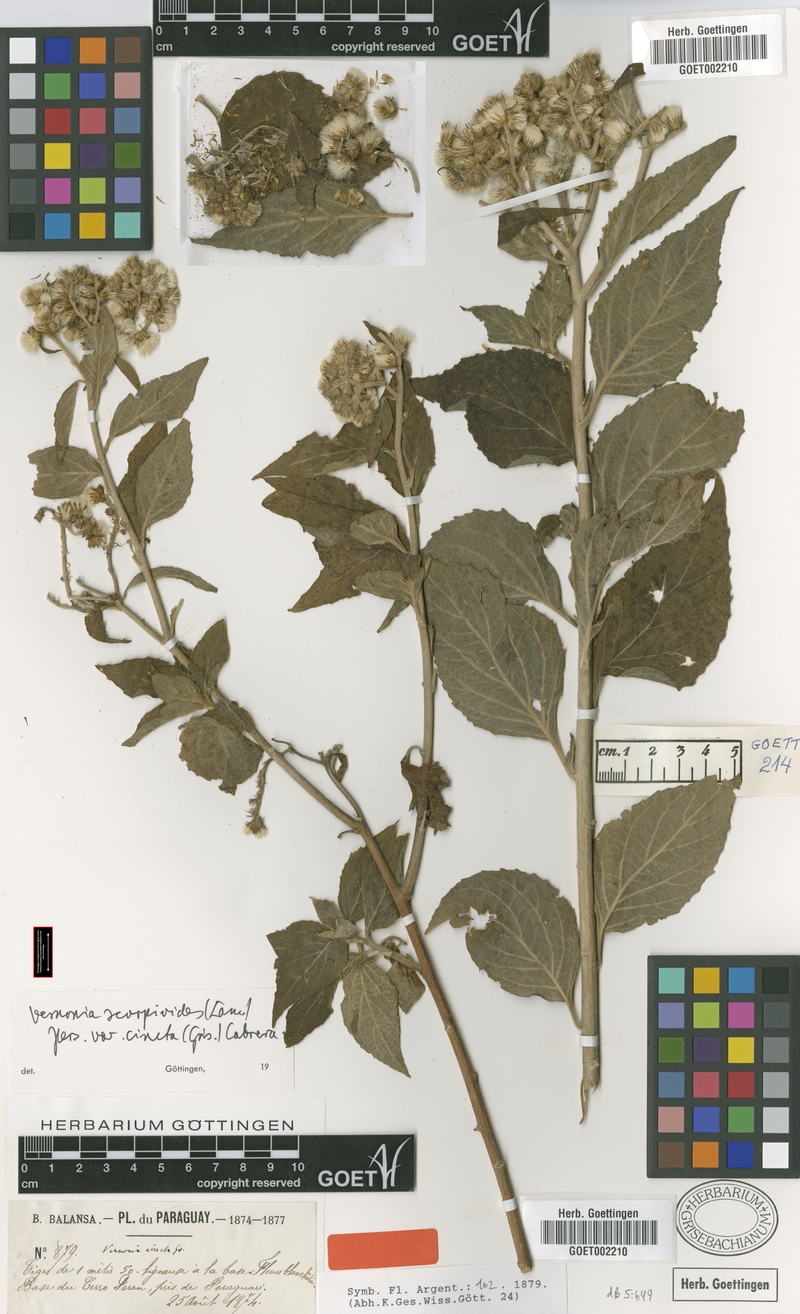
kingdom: Plantae
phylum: Tracheophyta
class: Magnoliopsida
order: Asterales
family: Asteraceae
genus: Cyrtocymura
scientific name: Cyrtocymura cincta
